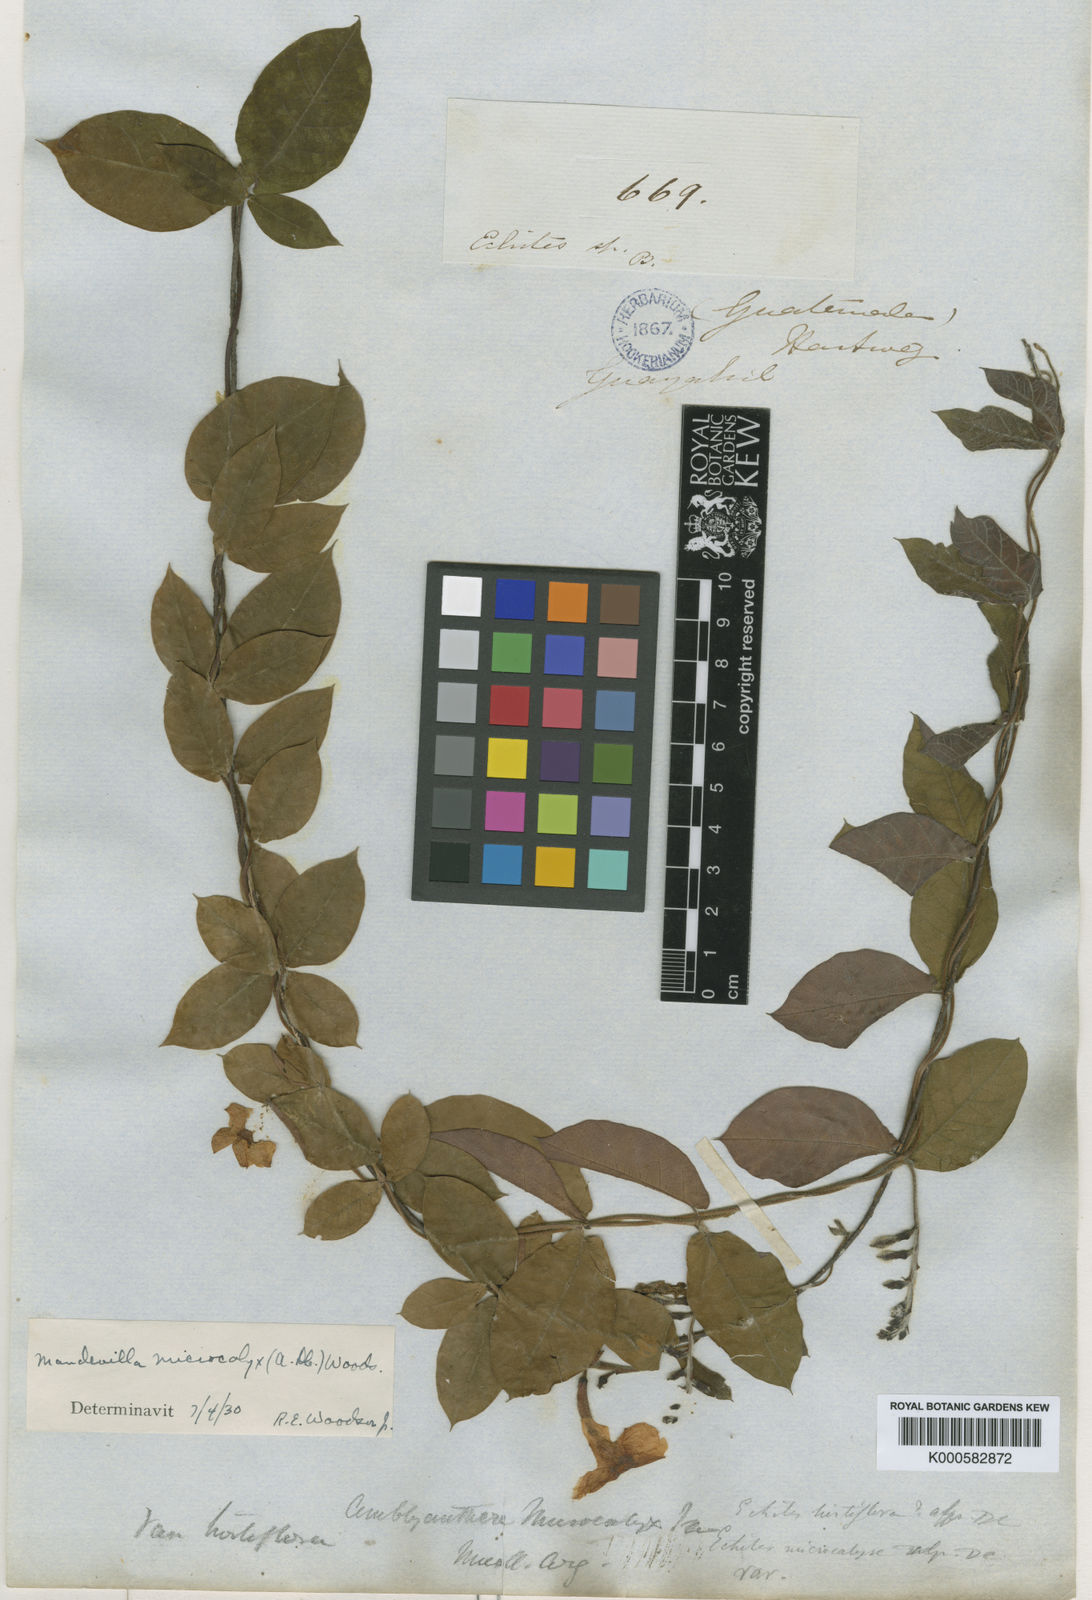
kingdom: Plantae
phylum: Tracheophyta
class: Magnoliopsida
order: Gentianales
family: Apocynaceae
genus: Mandevilla
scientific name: Mandevilla subsagittata
